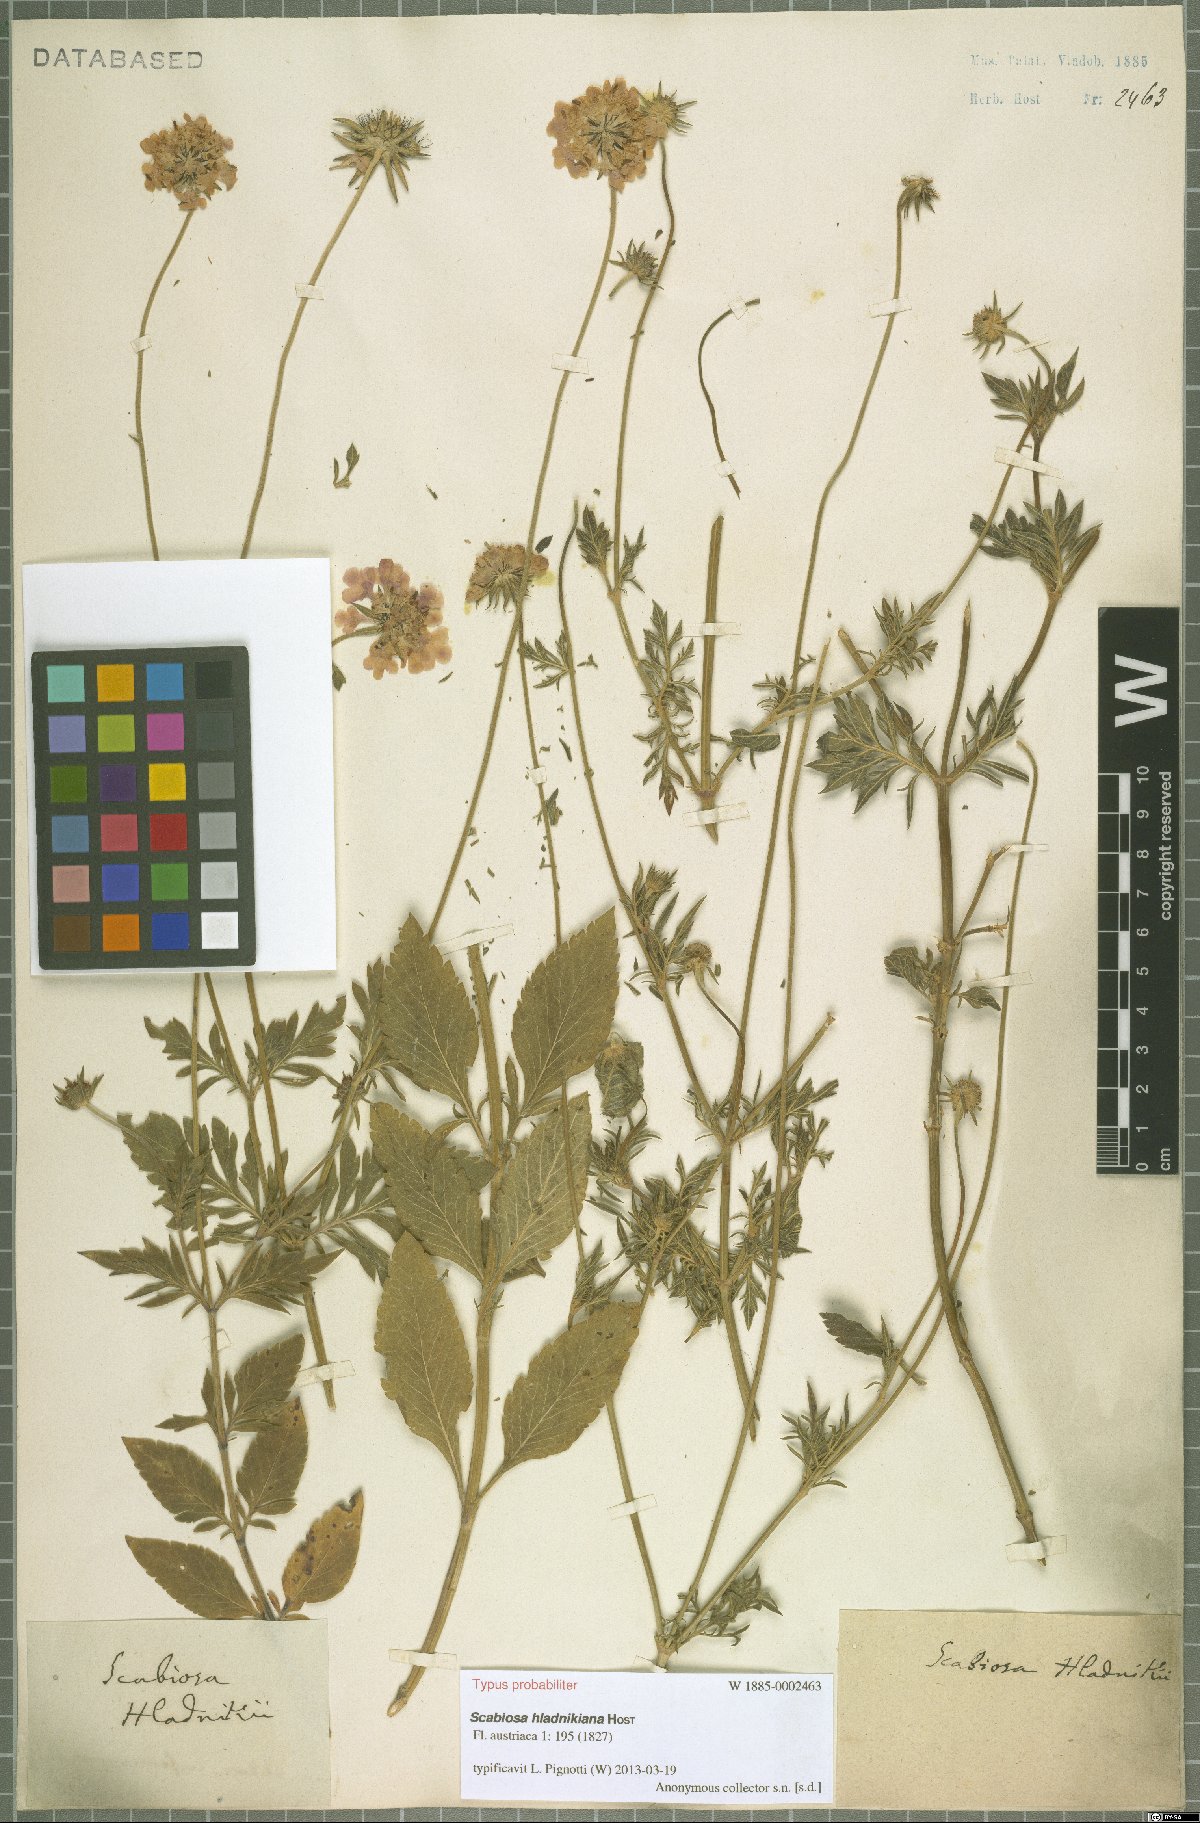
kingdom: Plantae
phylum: Tracheophyta
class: Magnoliopsida
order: Dipsacales
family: Caprifoliaceae
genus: Scabiosa
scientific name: Scabiosa hladnikiana
